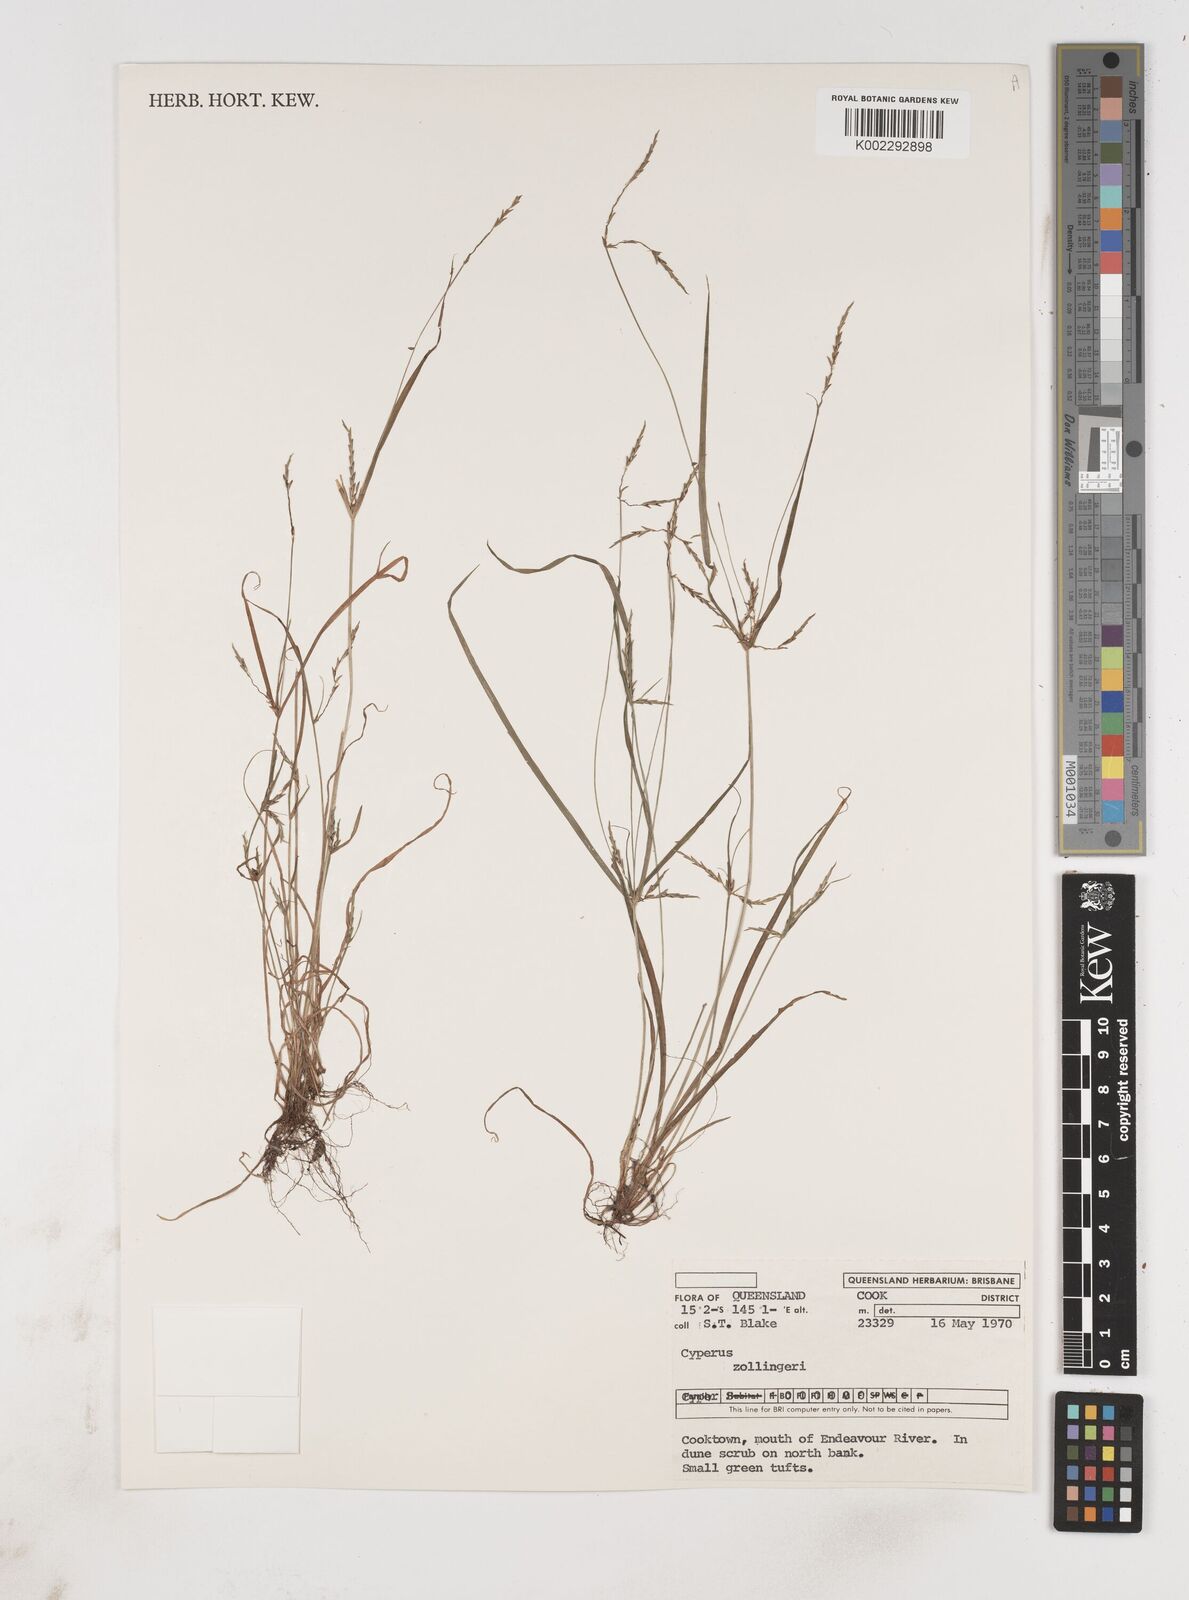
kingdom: Plantae
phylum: Tracheophyta
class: Liliopsida
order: Poales
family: Cyperaceae
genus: Cyperus
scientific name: Cyperus zollingeri
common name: Roadside flatsedge
